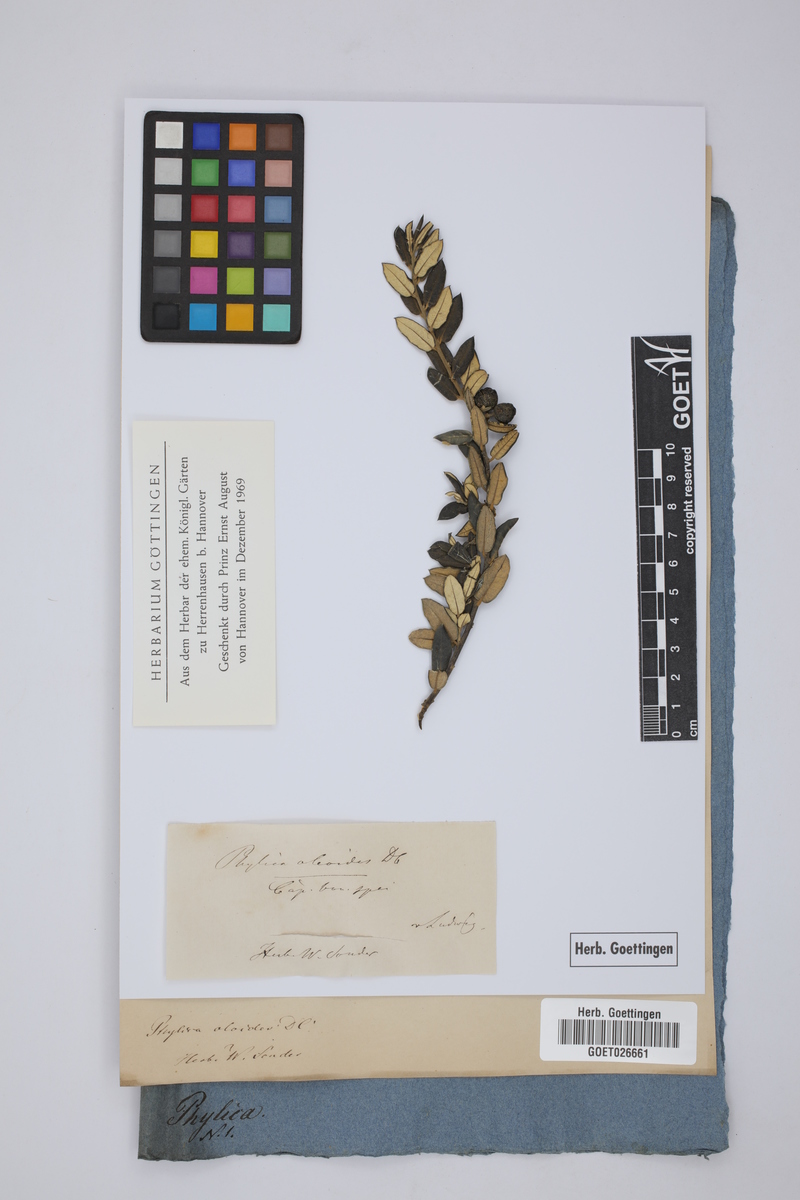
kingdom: Plantae
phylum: Tracheophyta
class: Magnoliopsida
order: Rosales
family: Rhamnaceae
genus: Phylica
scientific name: Phylica oleaefolia
